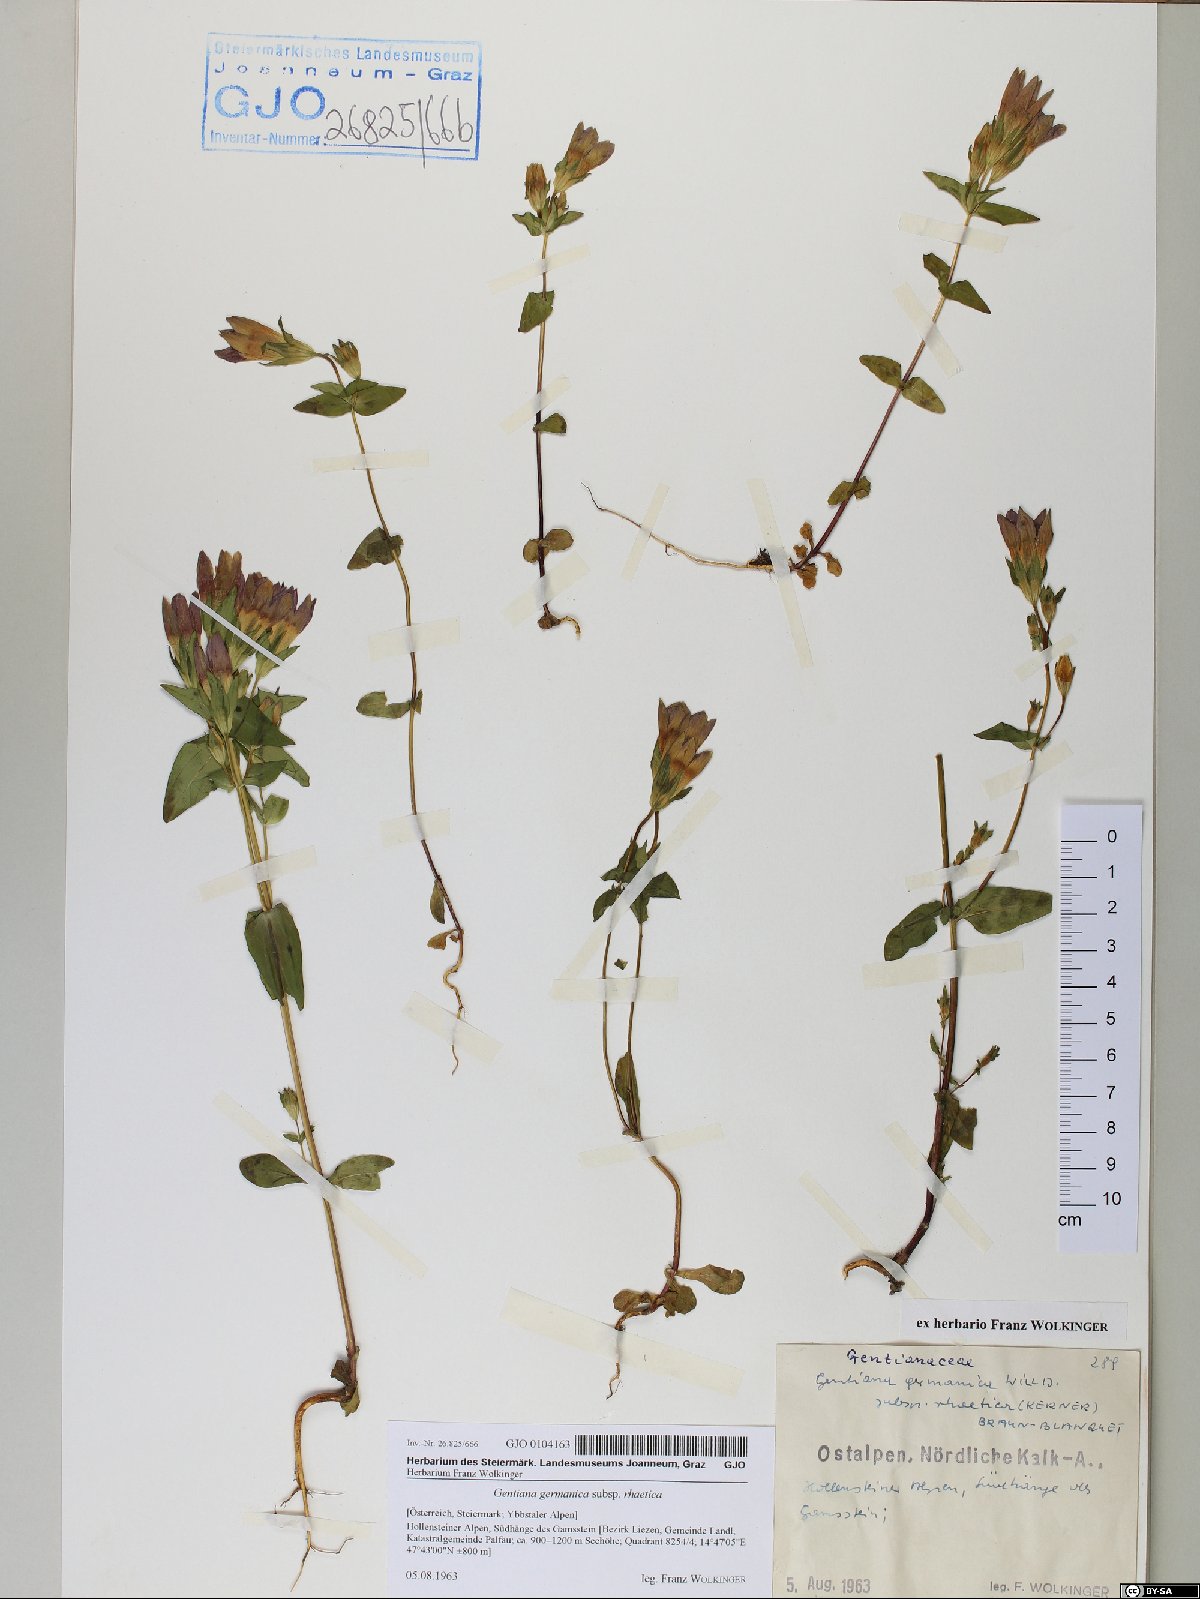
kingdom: Plantae
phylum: Tracheophyta
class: Magnoliopsida
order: Gentianales
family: Gentianaceae
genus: Gentianella
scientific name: Gentianella rhaetica
